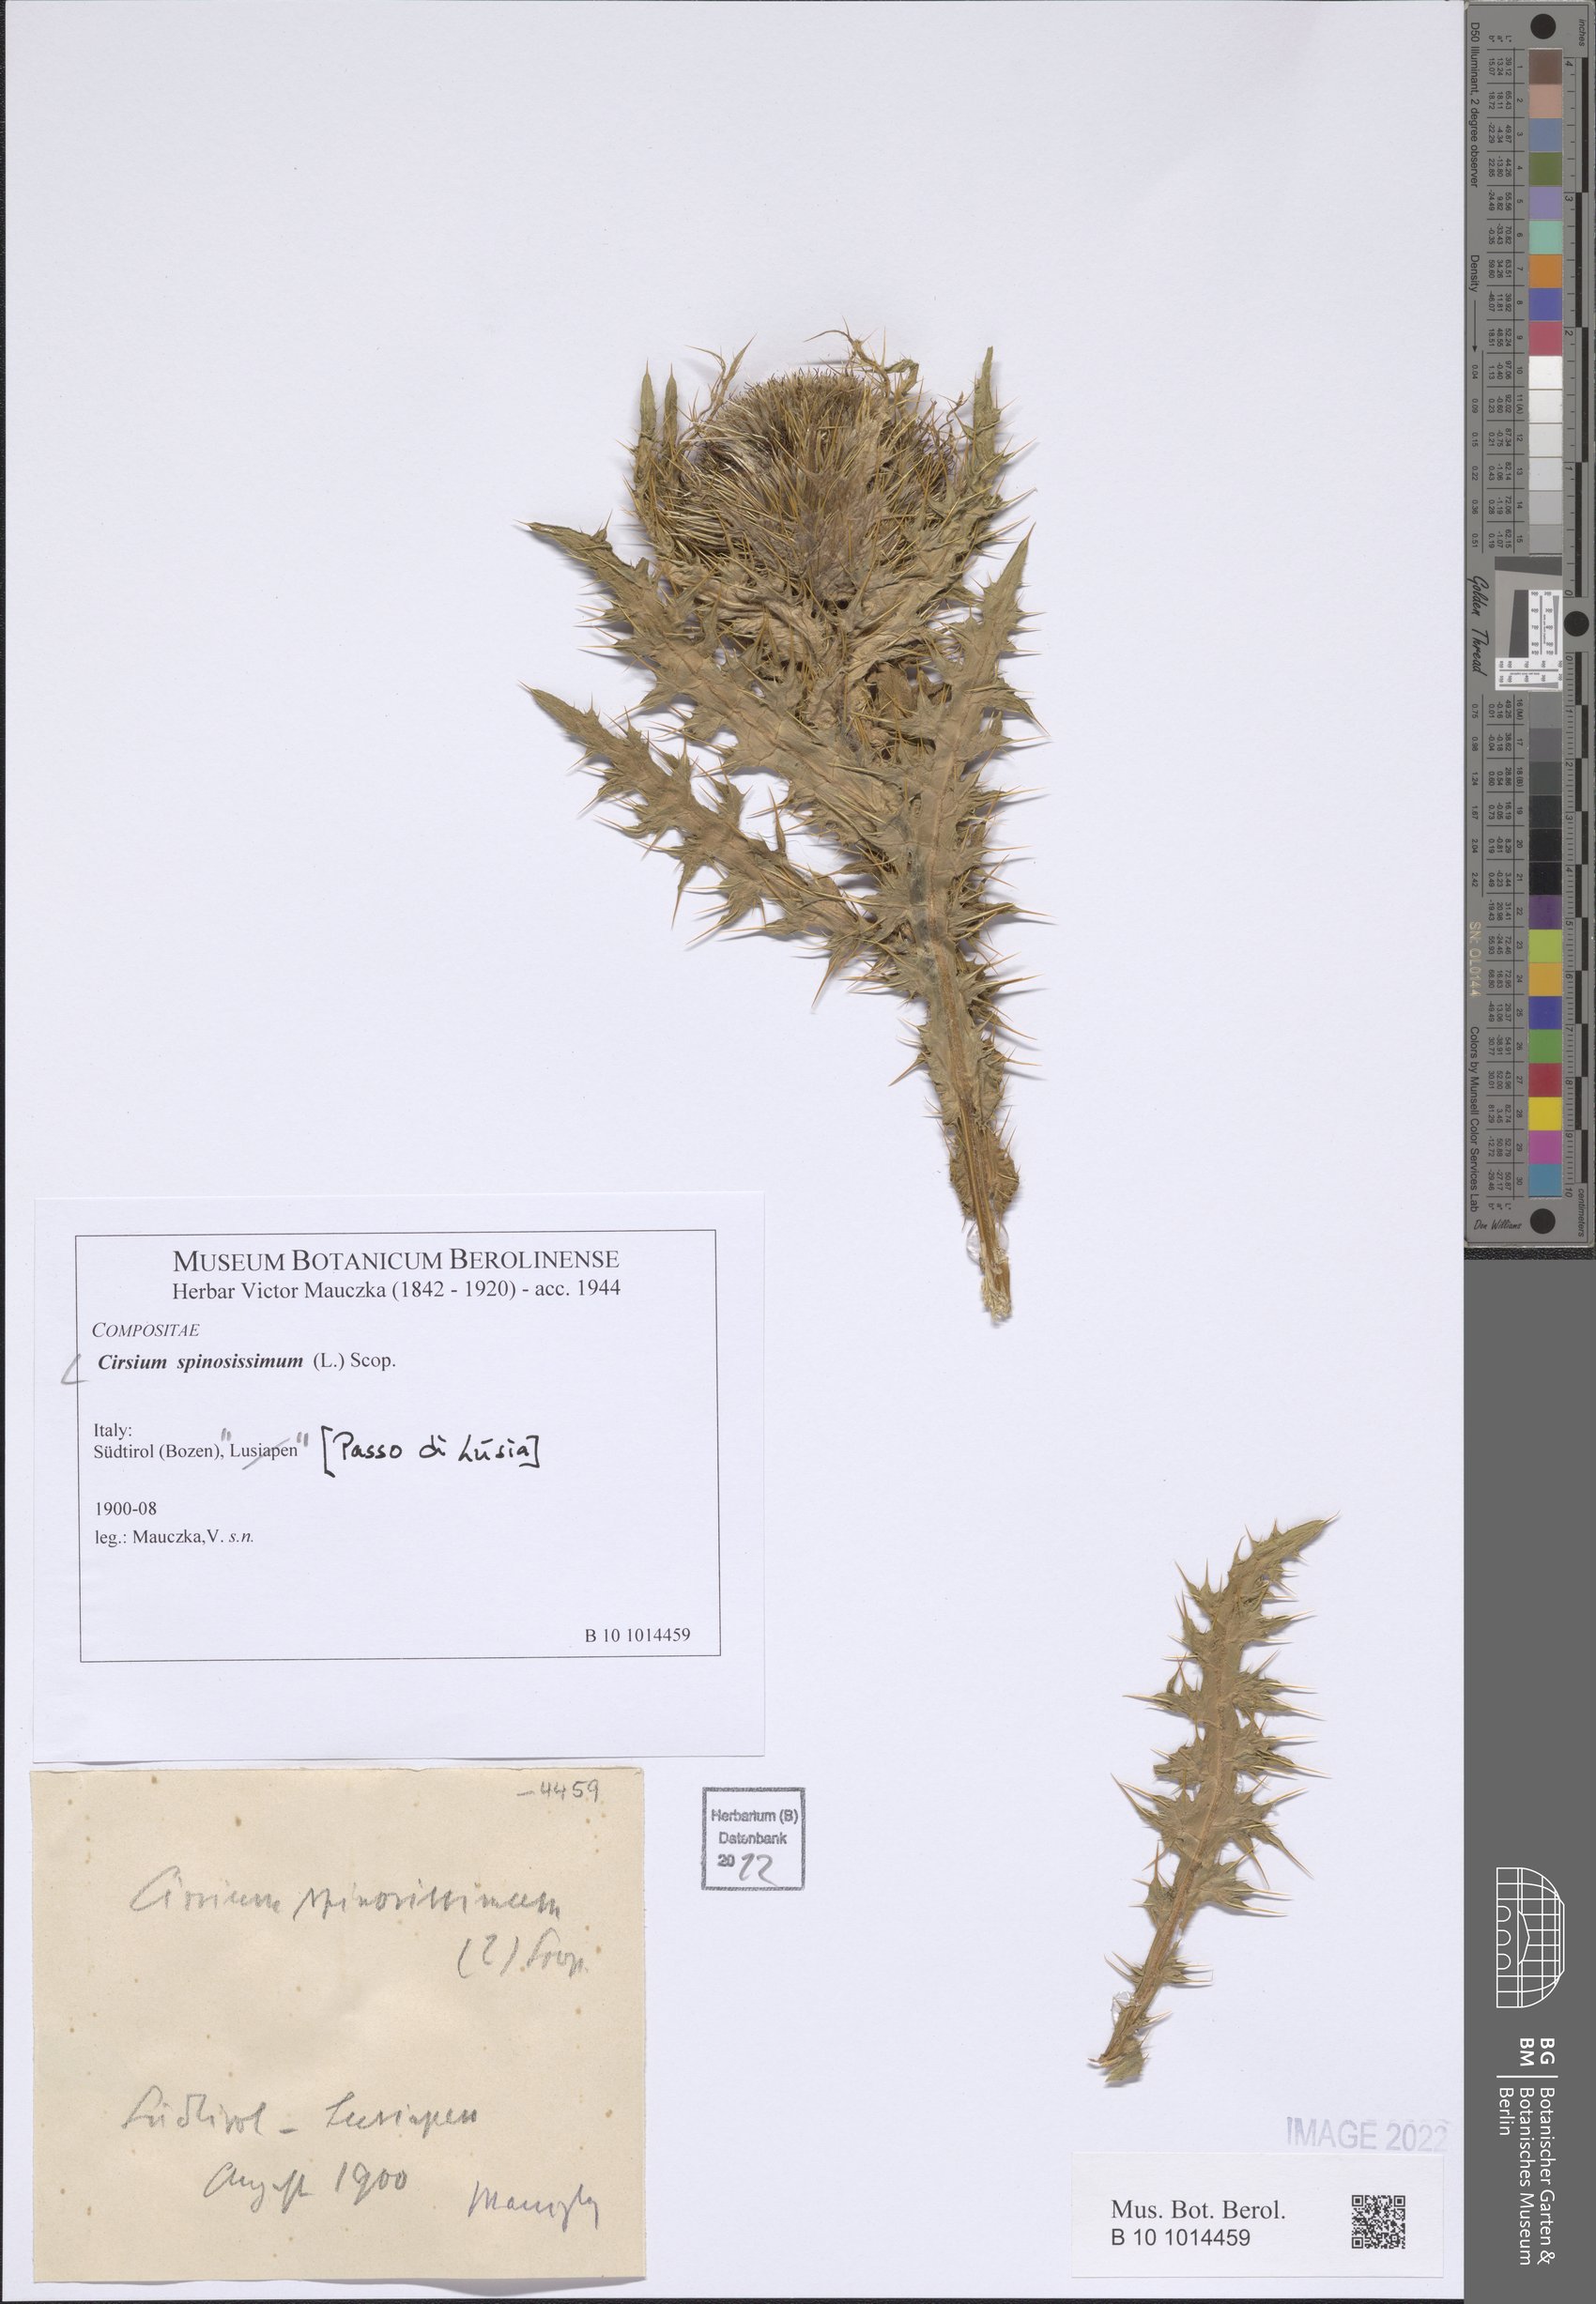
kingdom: Plantae
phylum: Tracheophyta
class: Magnoliopsida
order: Asterales
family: Asteraceae
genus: Cirsium
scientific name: Cirsium spinosissimum
